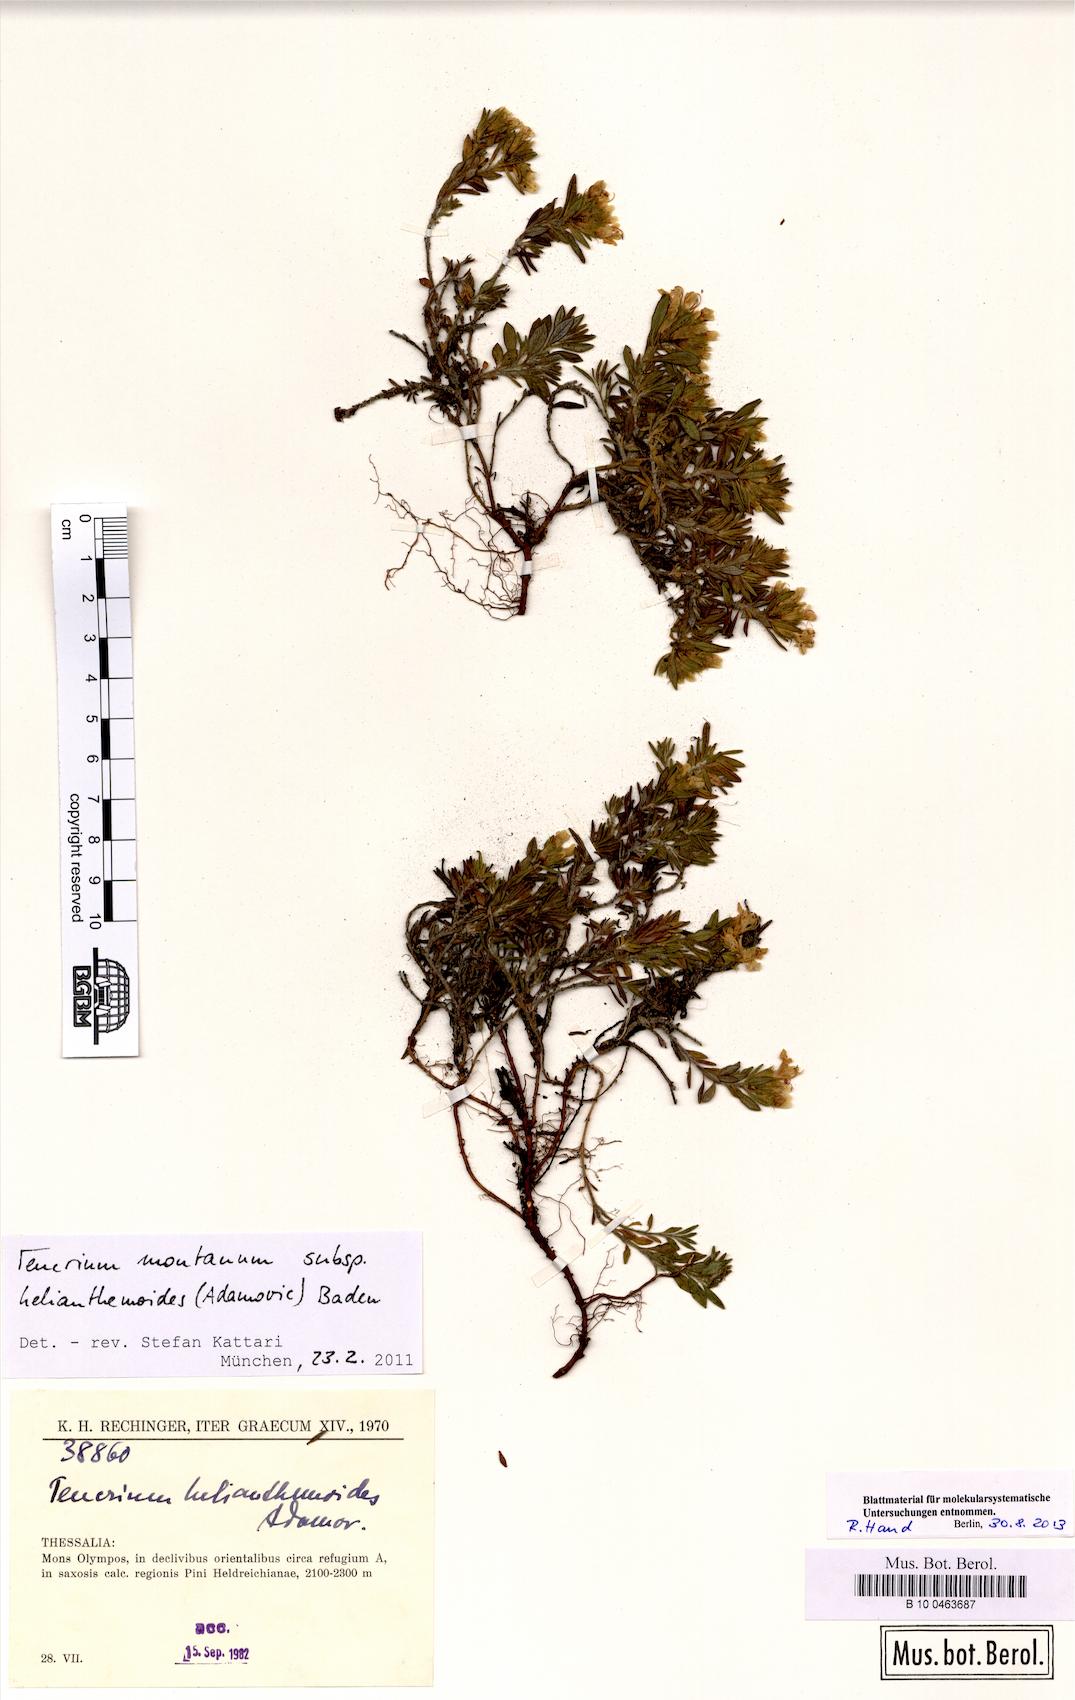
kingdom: Plantae
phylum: Tracheophyta
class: Magnoliopsida
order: Lamiales
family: Lamiaceae
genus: Teucrium
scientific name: Teucrium montanum
